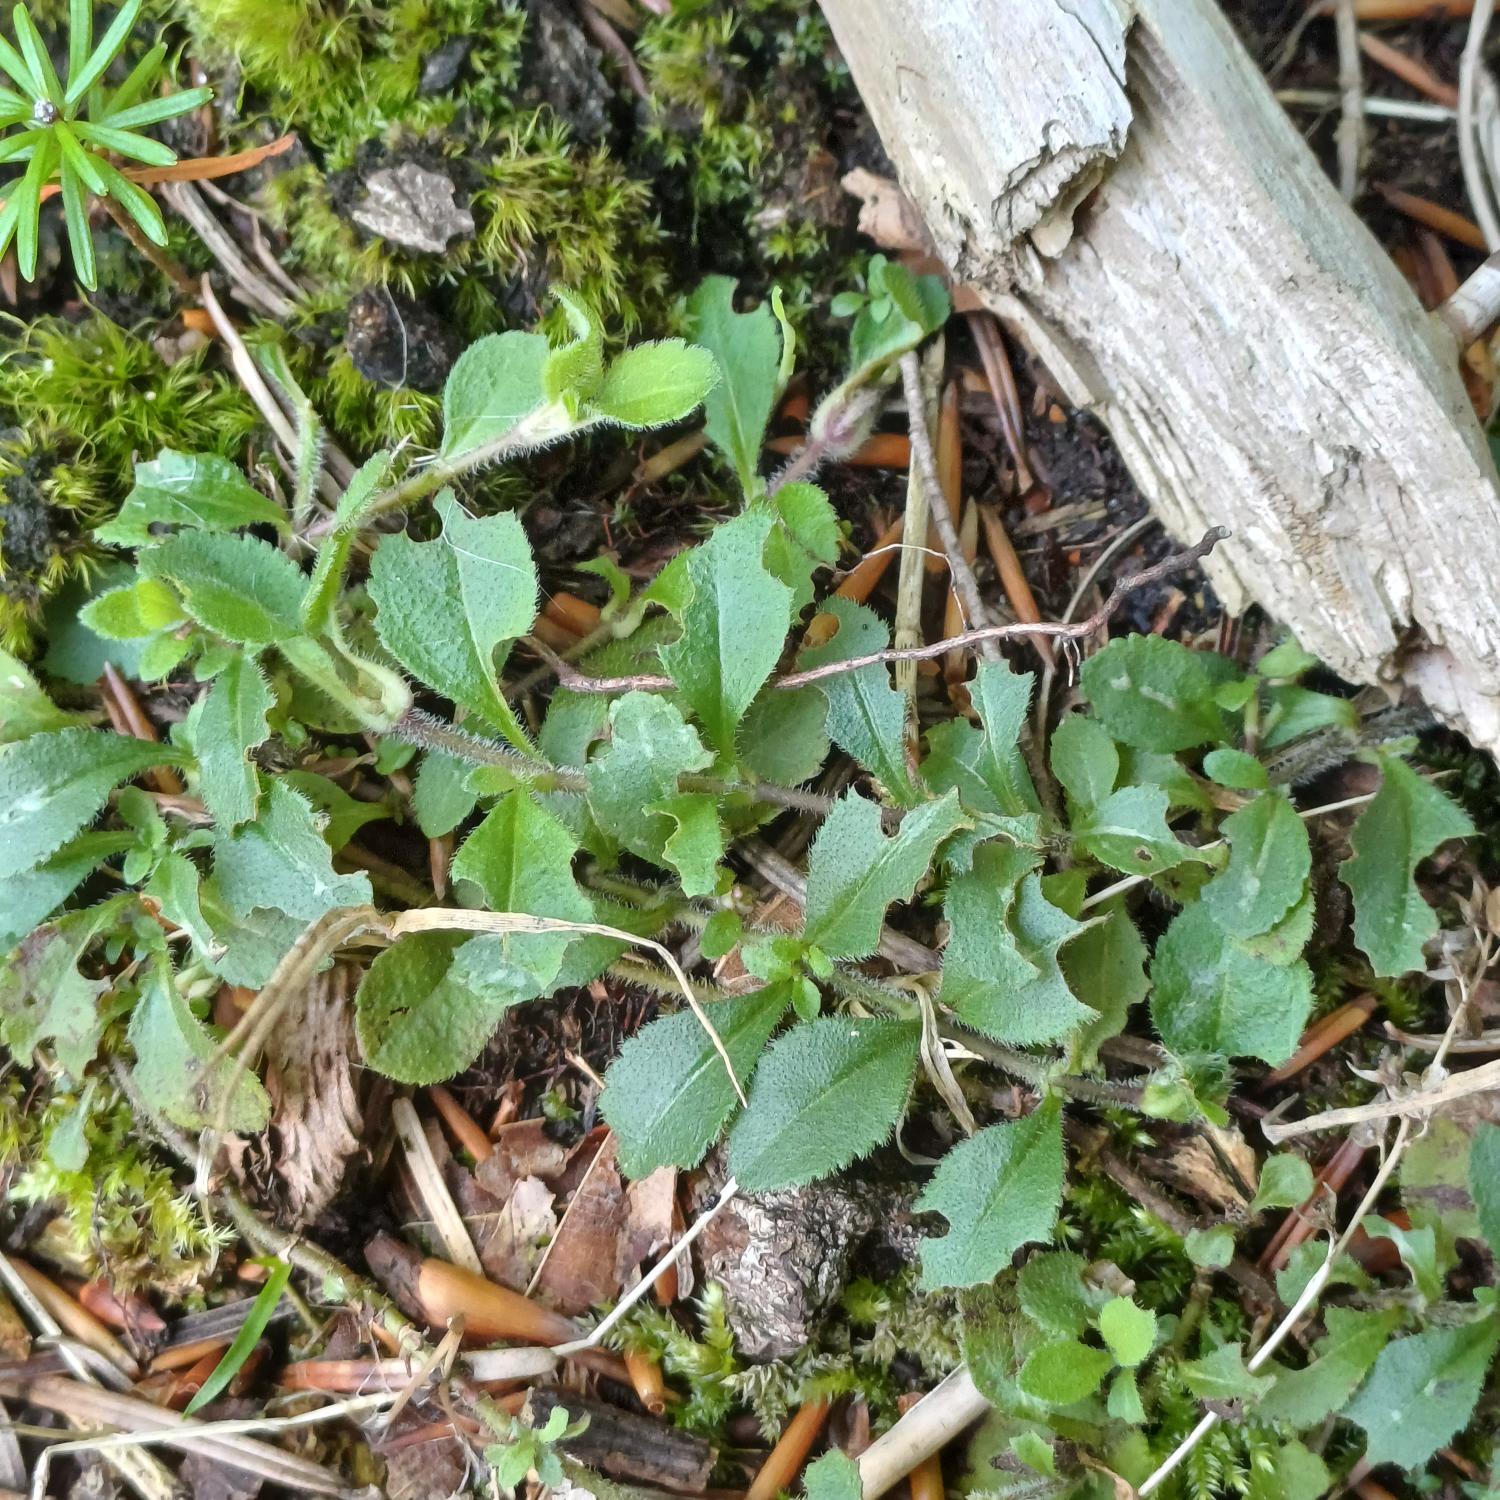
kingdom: Plantae
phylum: Tracheophyta
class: Magnoliopsida
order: Lamiales
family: Plantaginaceae
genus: Veronica
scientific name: Veronica officinalis
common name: Læge-ærenpris
